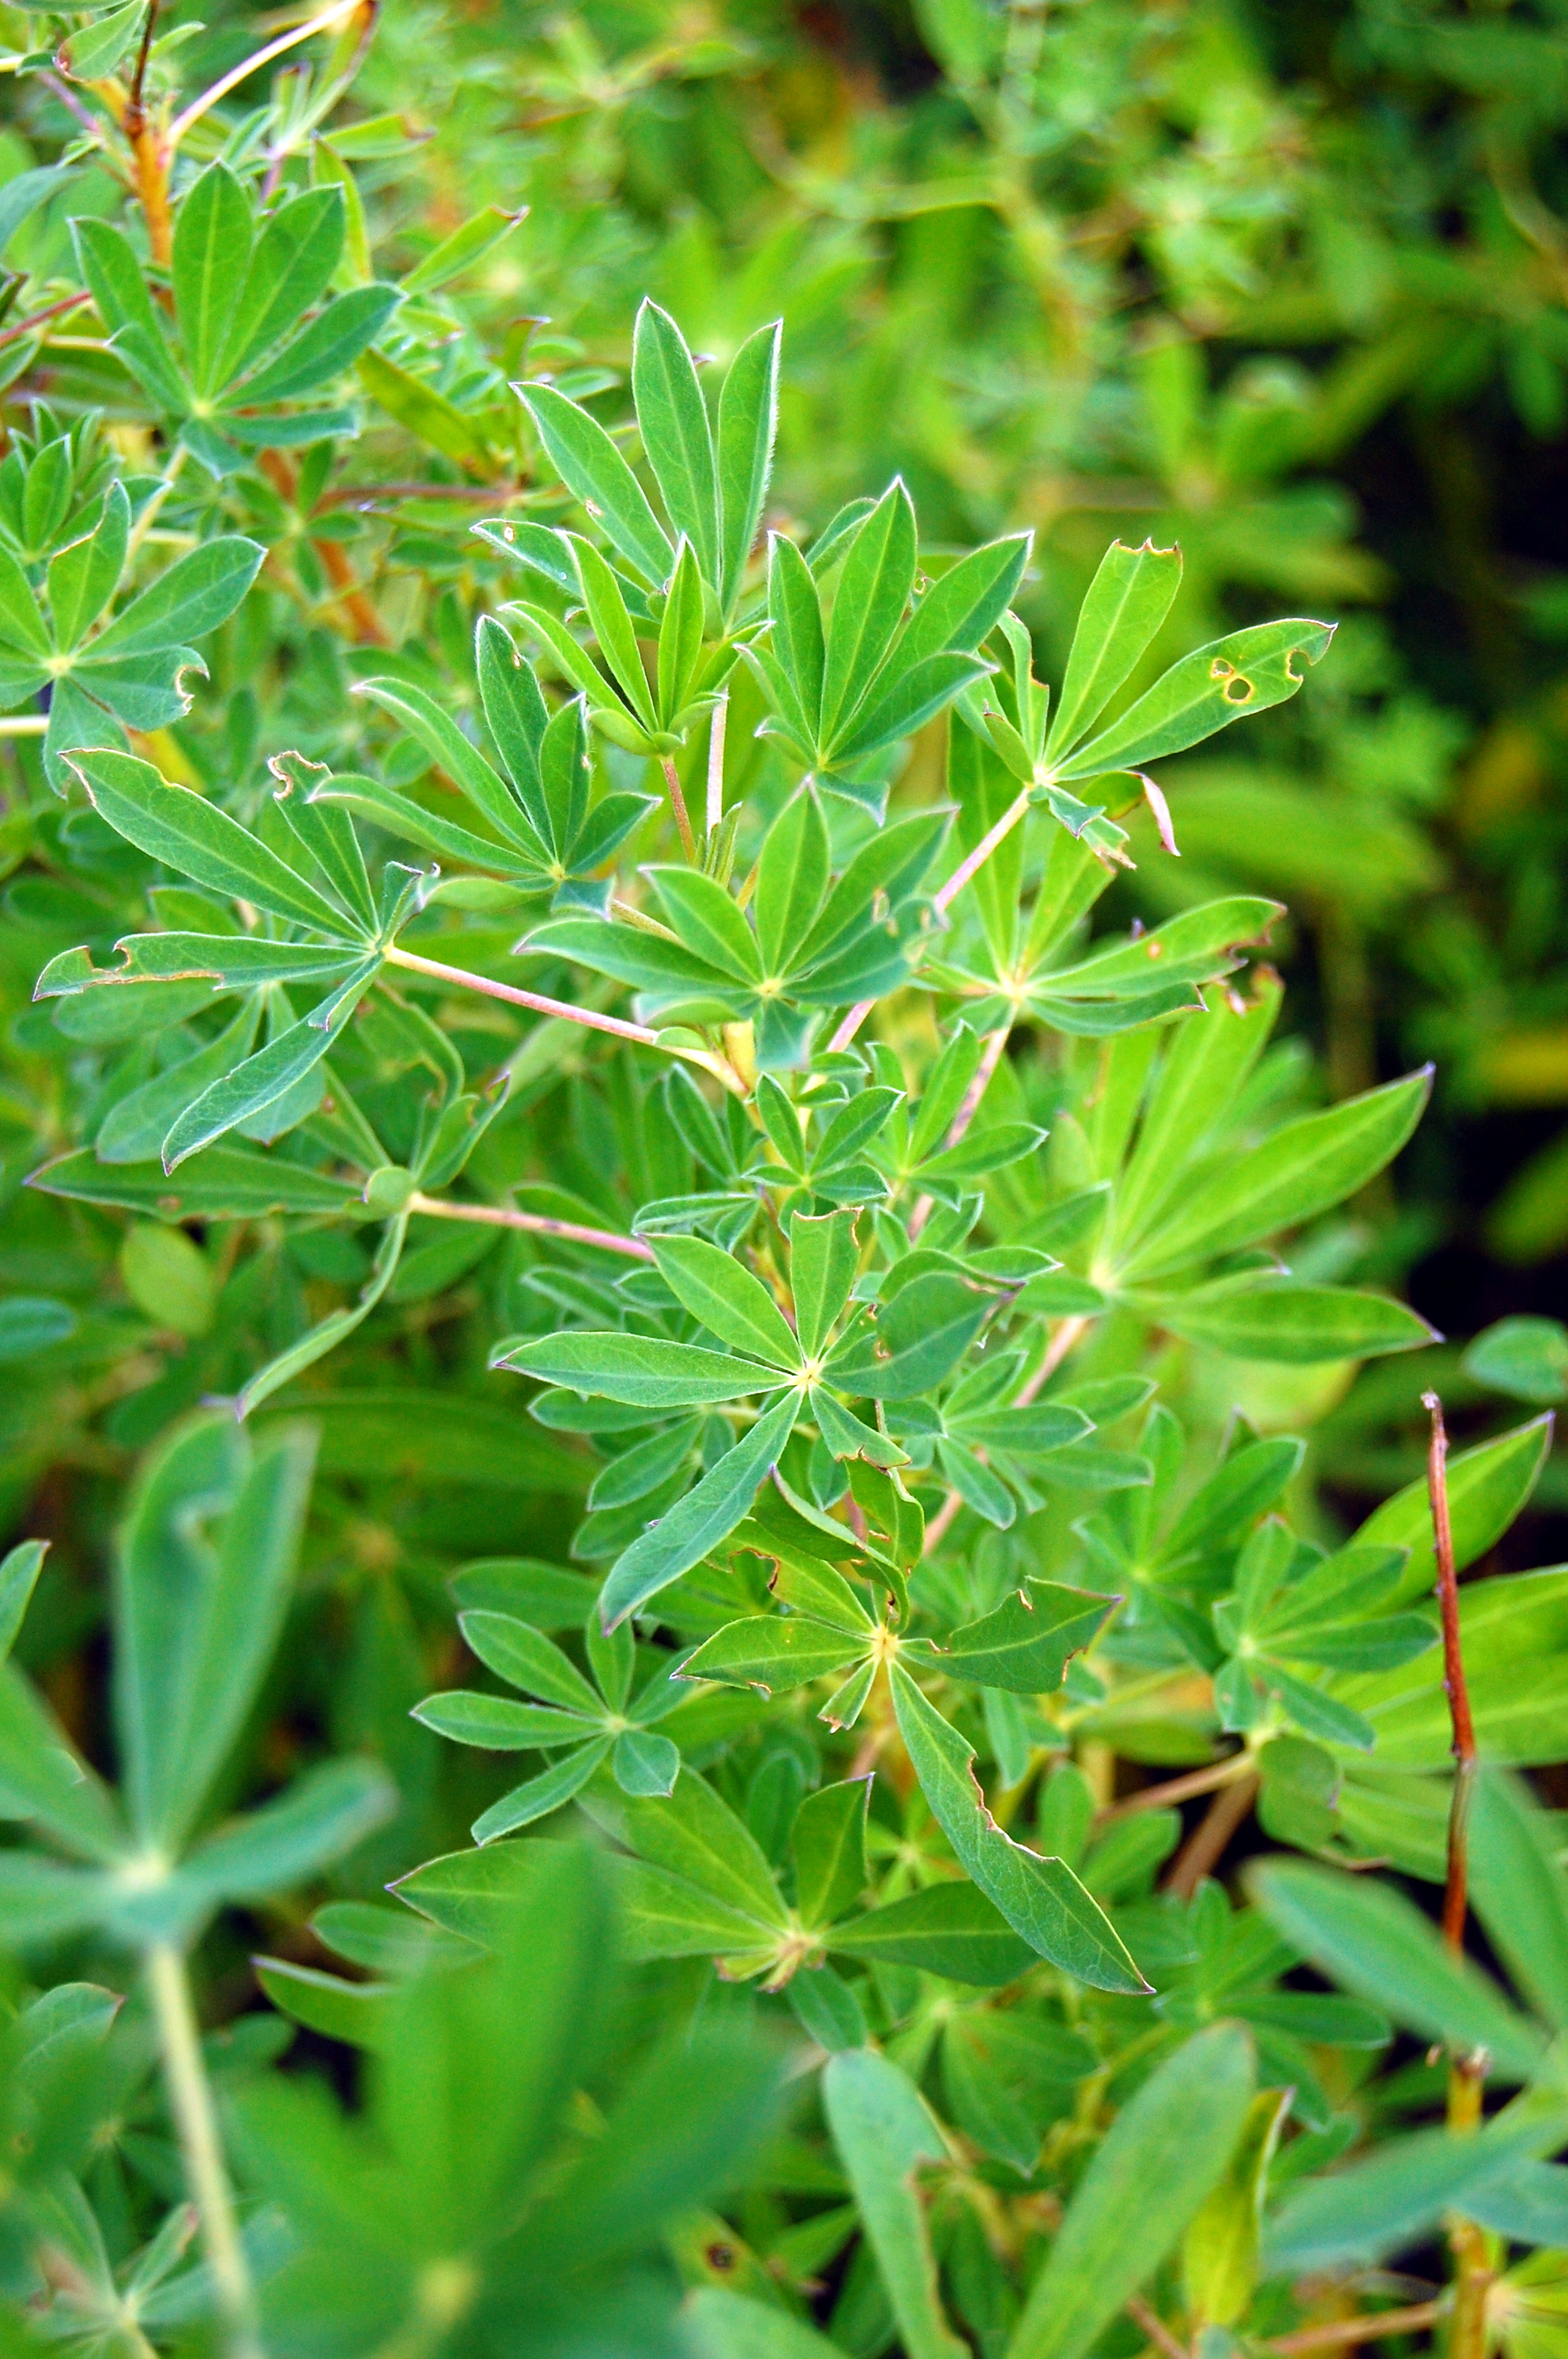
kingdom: Plantae
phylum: Tracheophyta
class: Magnoliopsida
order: Fabales
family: Fabaceae
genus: Lupinus
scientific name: Lupinus nootkatensis
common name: Nootka lupine
